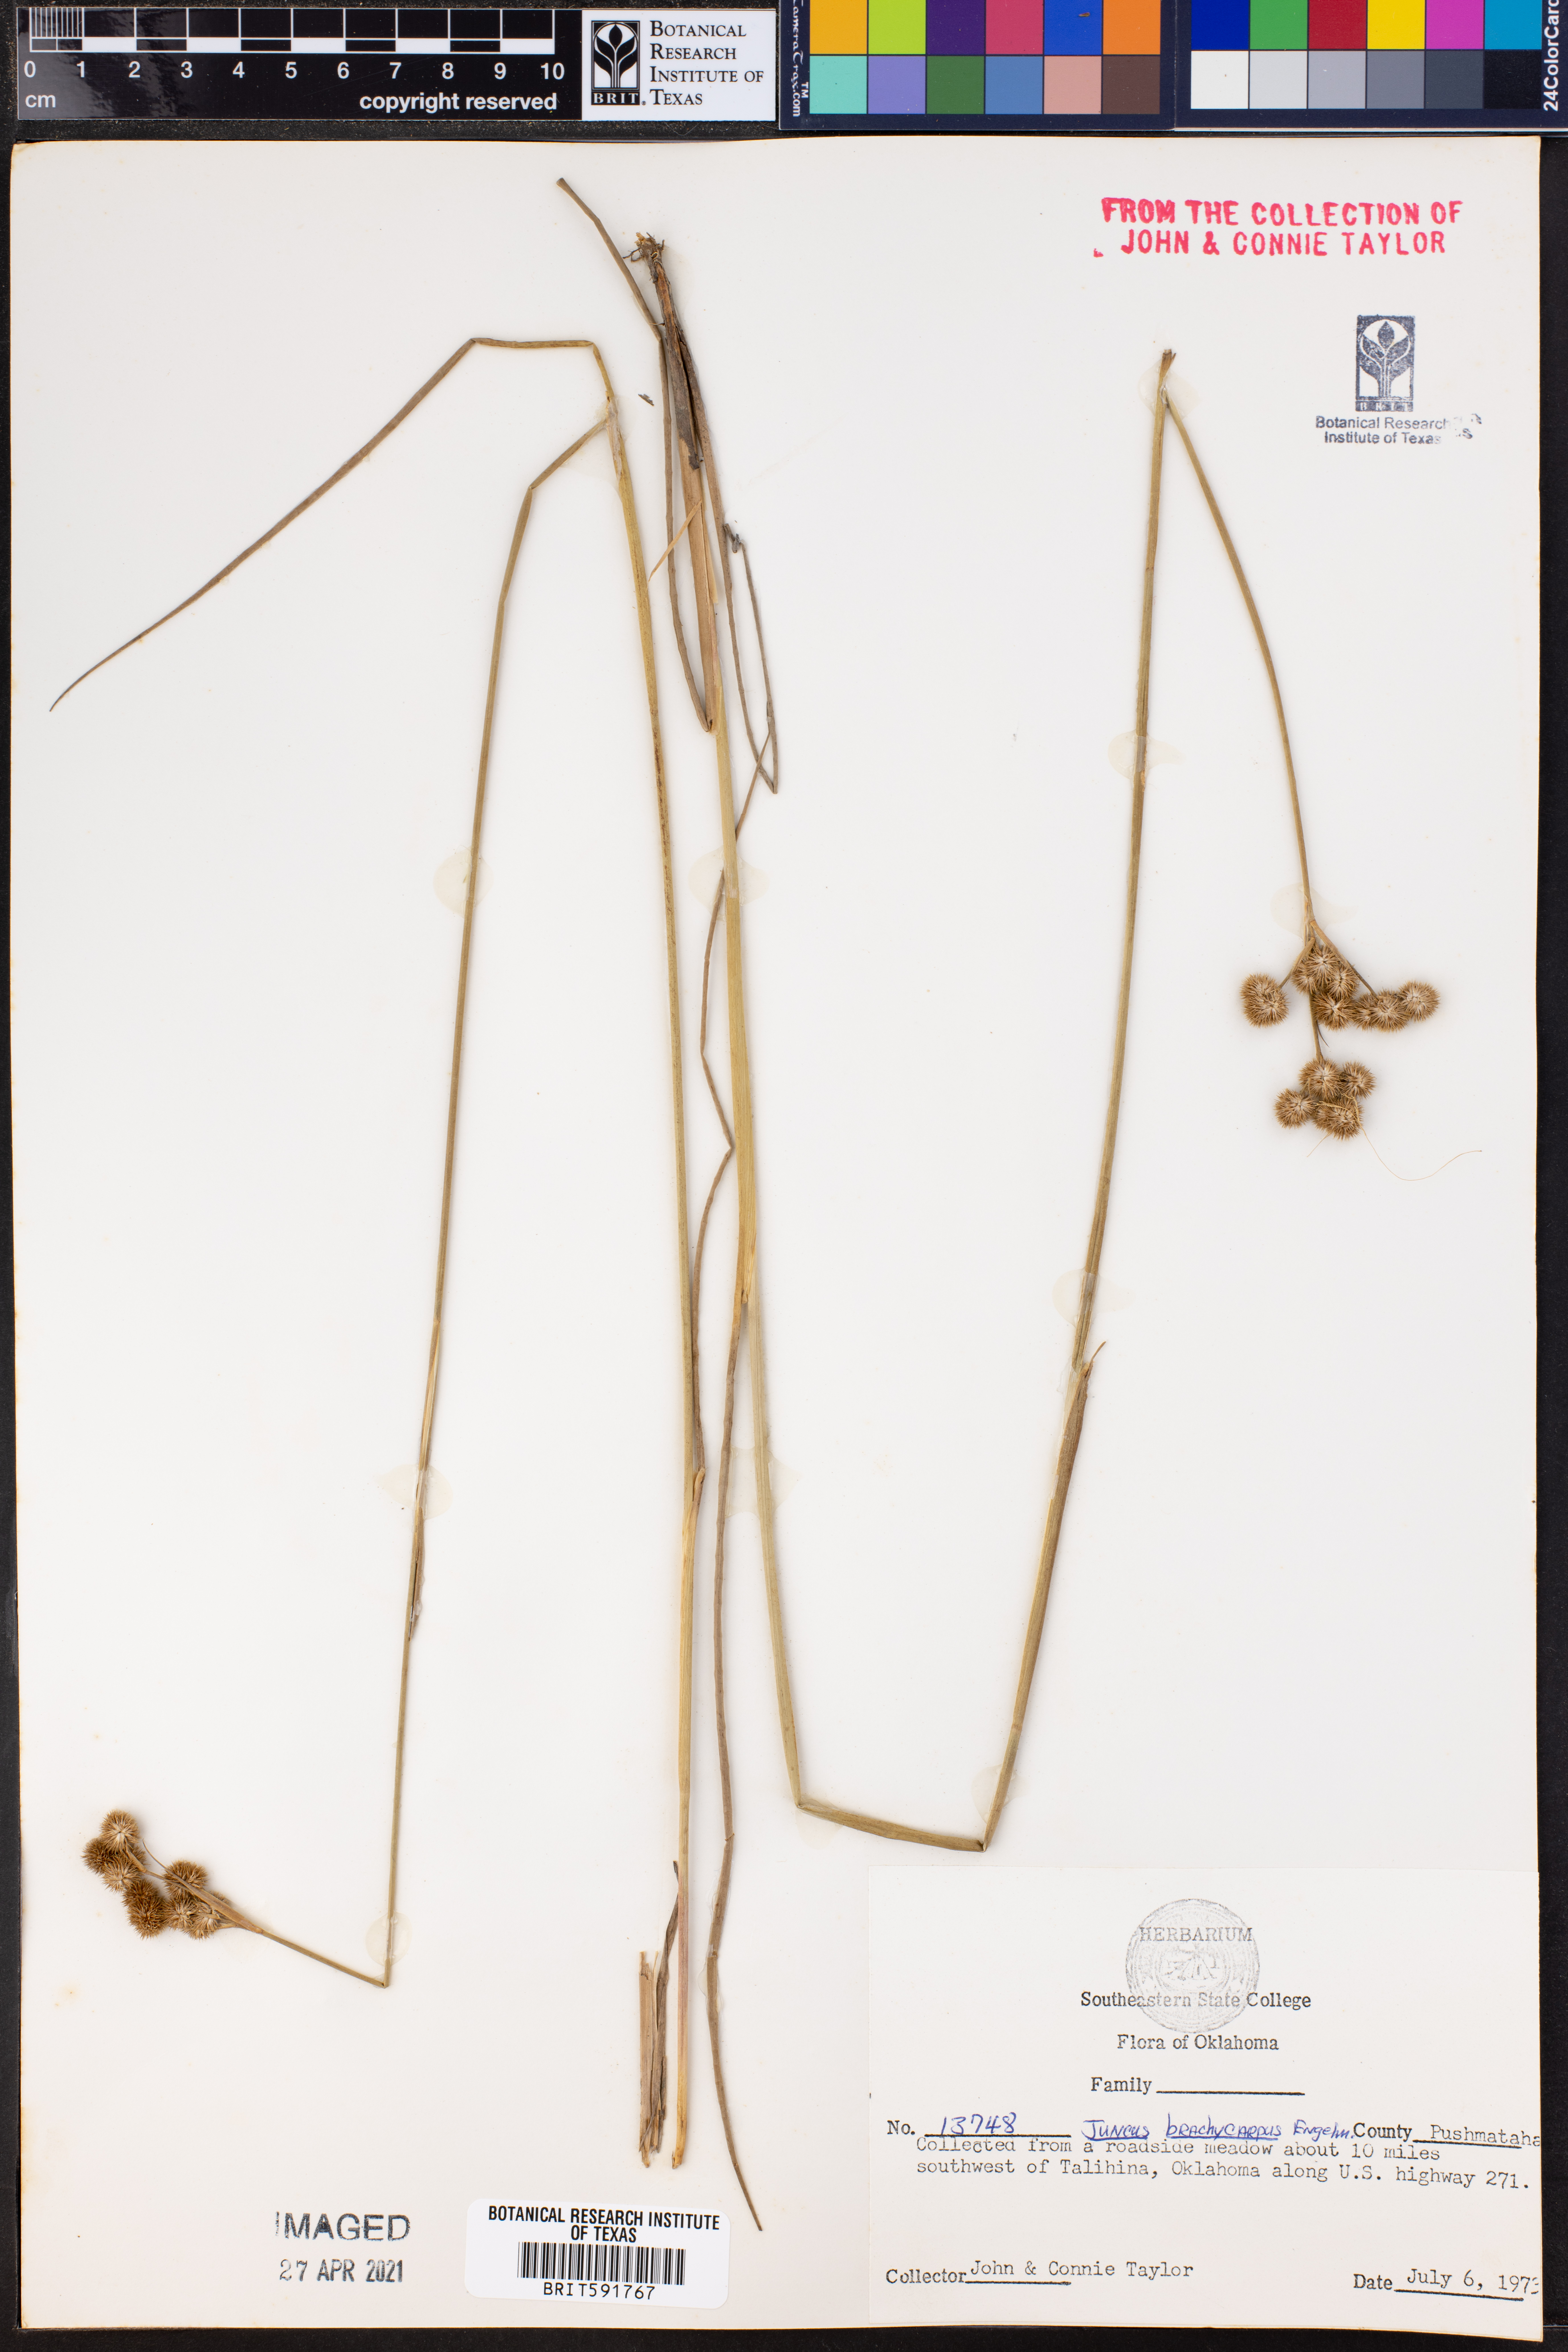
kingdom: Plantae
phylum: Tracheophyta
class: Liliopsida
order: Poales
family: Juncaceae
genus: Juncus
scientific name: Juncus brachycarpus
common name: Shore rush
